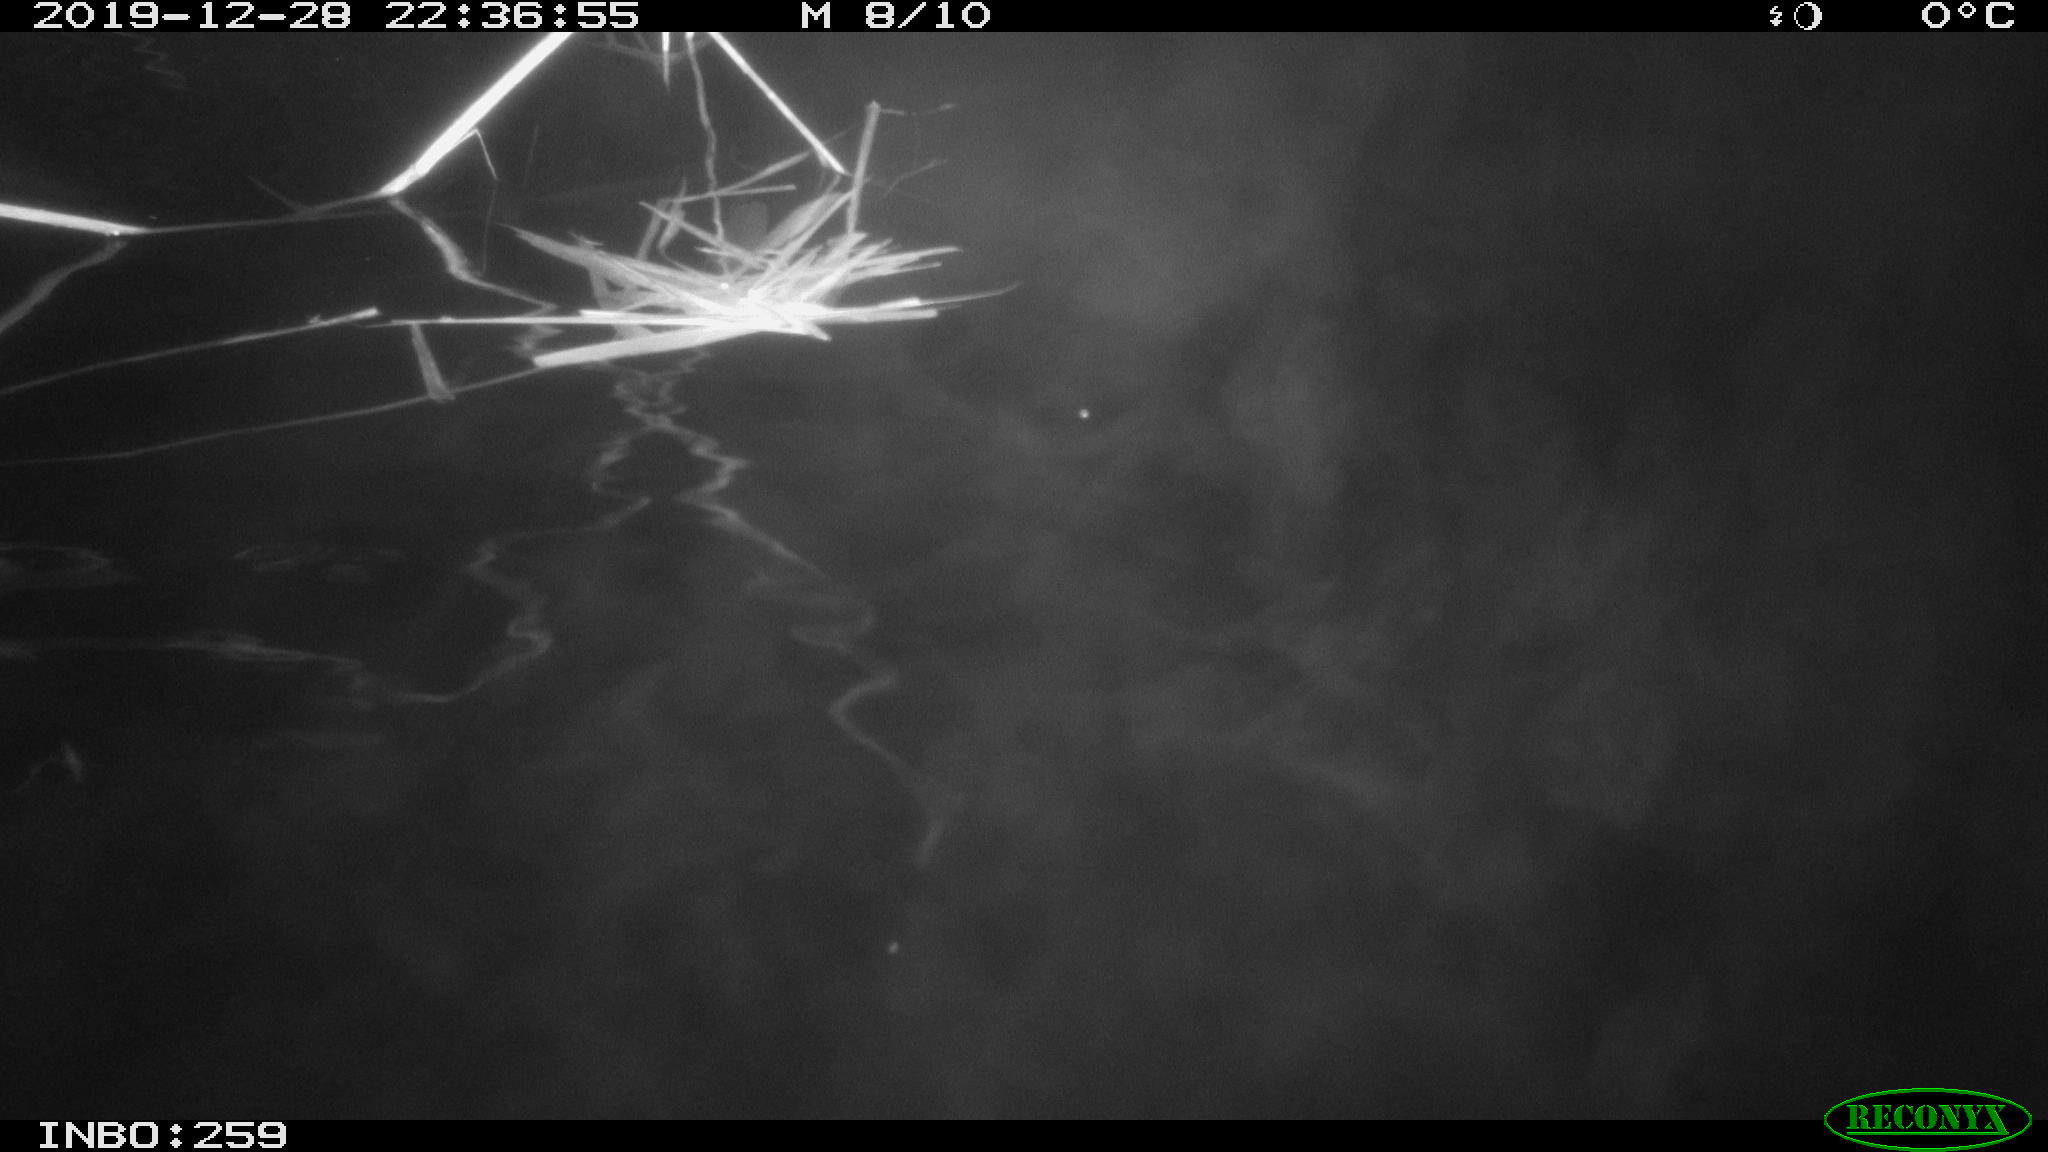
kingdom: Animalia
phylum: Chordata
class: Mammalia
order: Rodentia
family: Cricetidae
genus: Ondatra
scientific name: Ondatra zibethicus
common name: Muskrat
